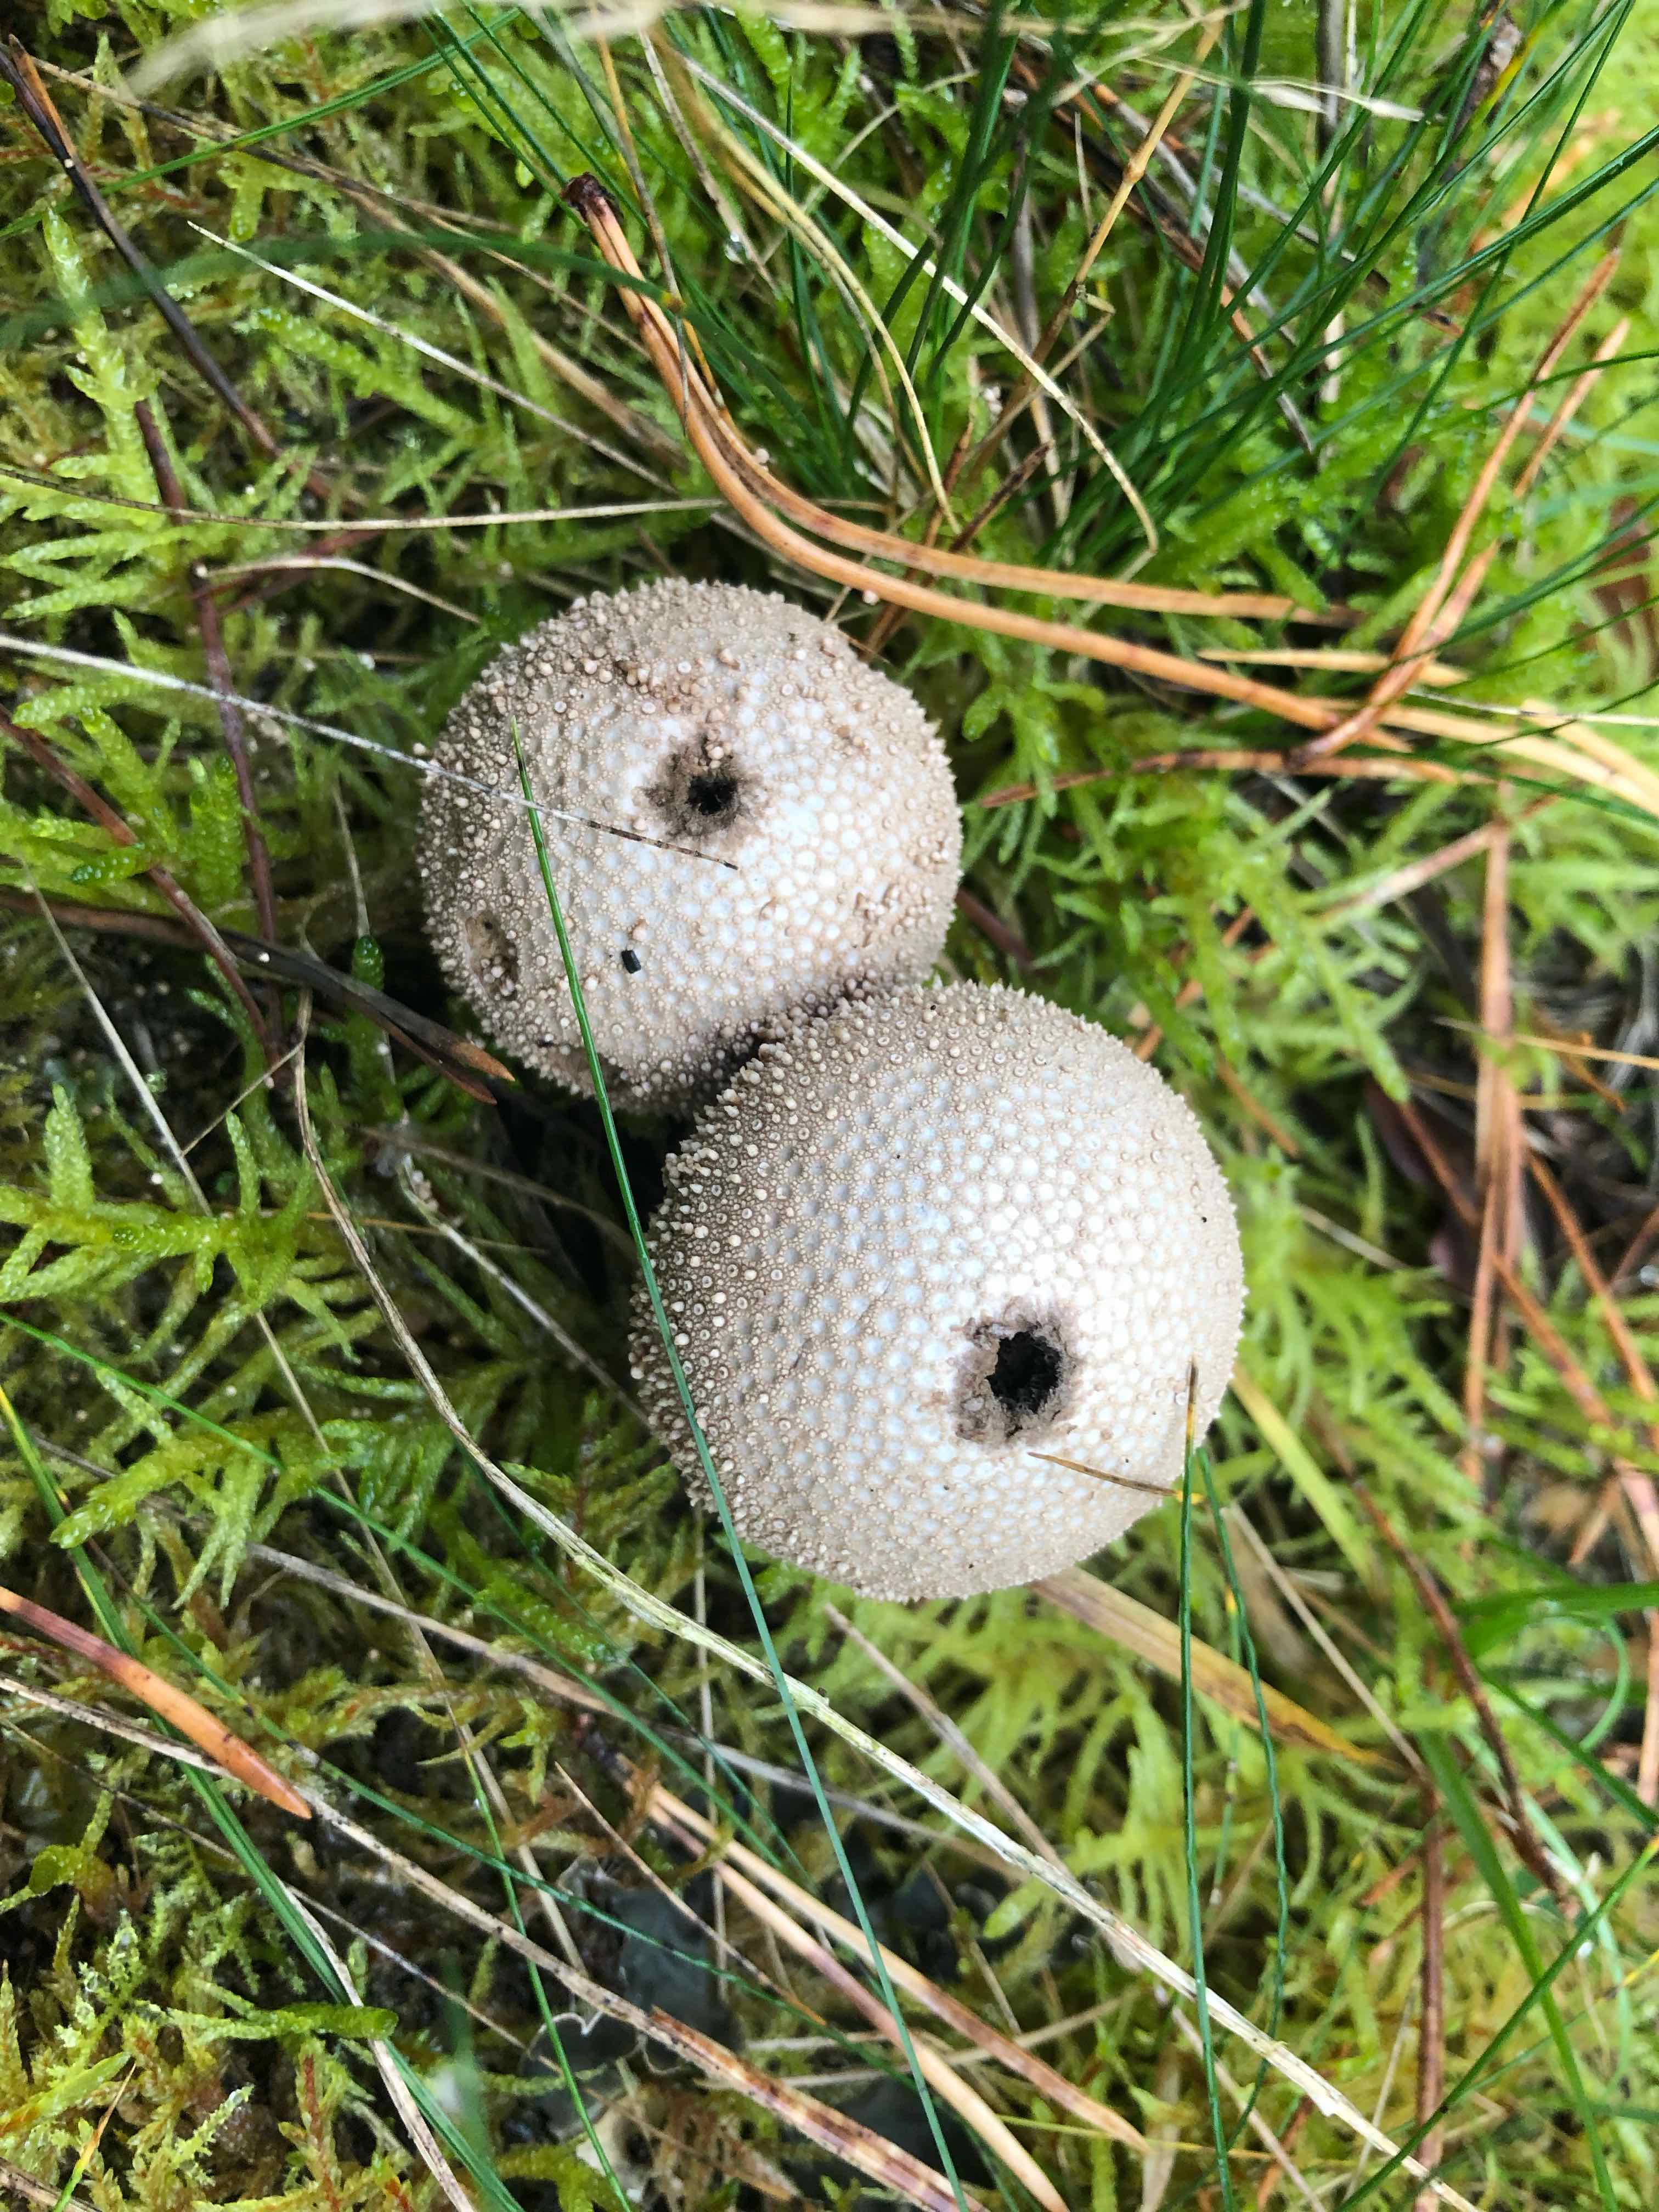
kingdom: Fungi
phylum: Basidiomycota
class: Agaricomycetes
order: Agaricales
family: Lycoperdaceae
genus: Lycoperdon
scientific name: Lycoperdon perlatum
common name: krystal-støvbold
